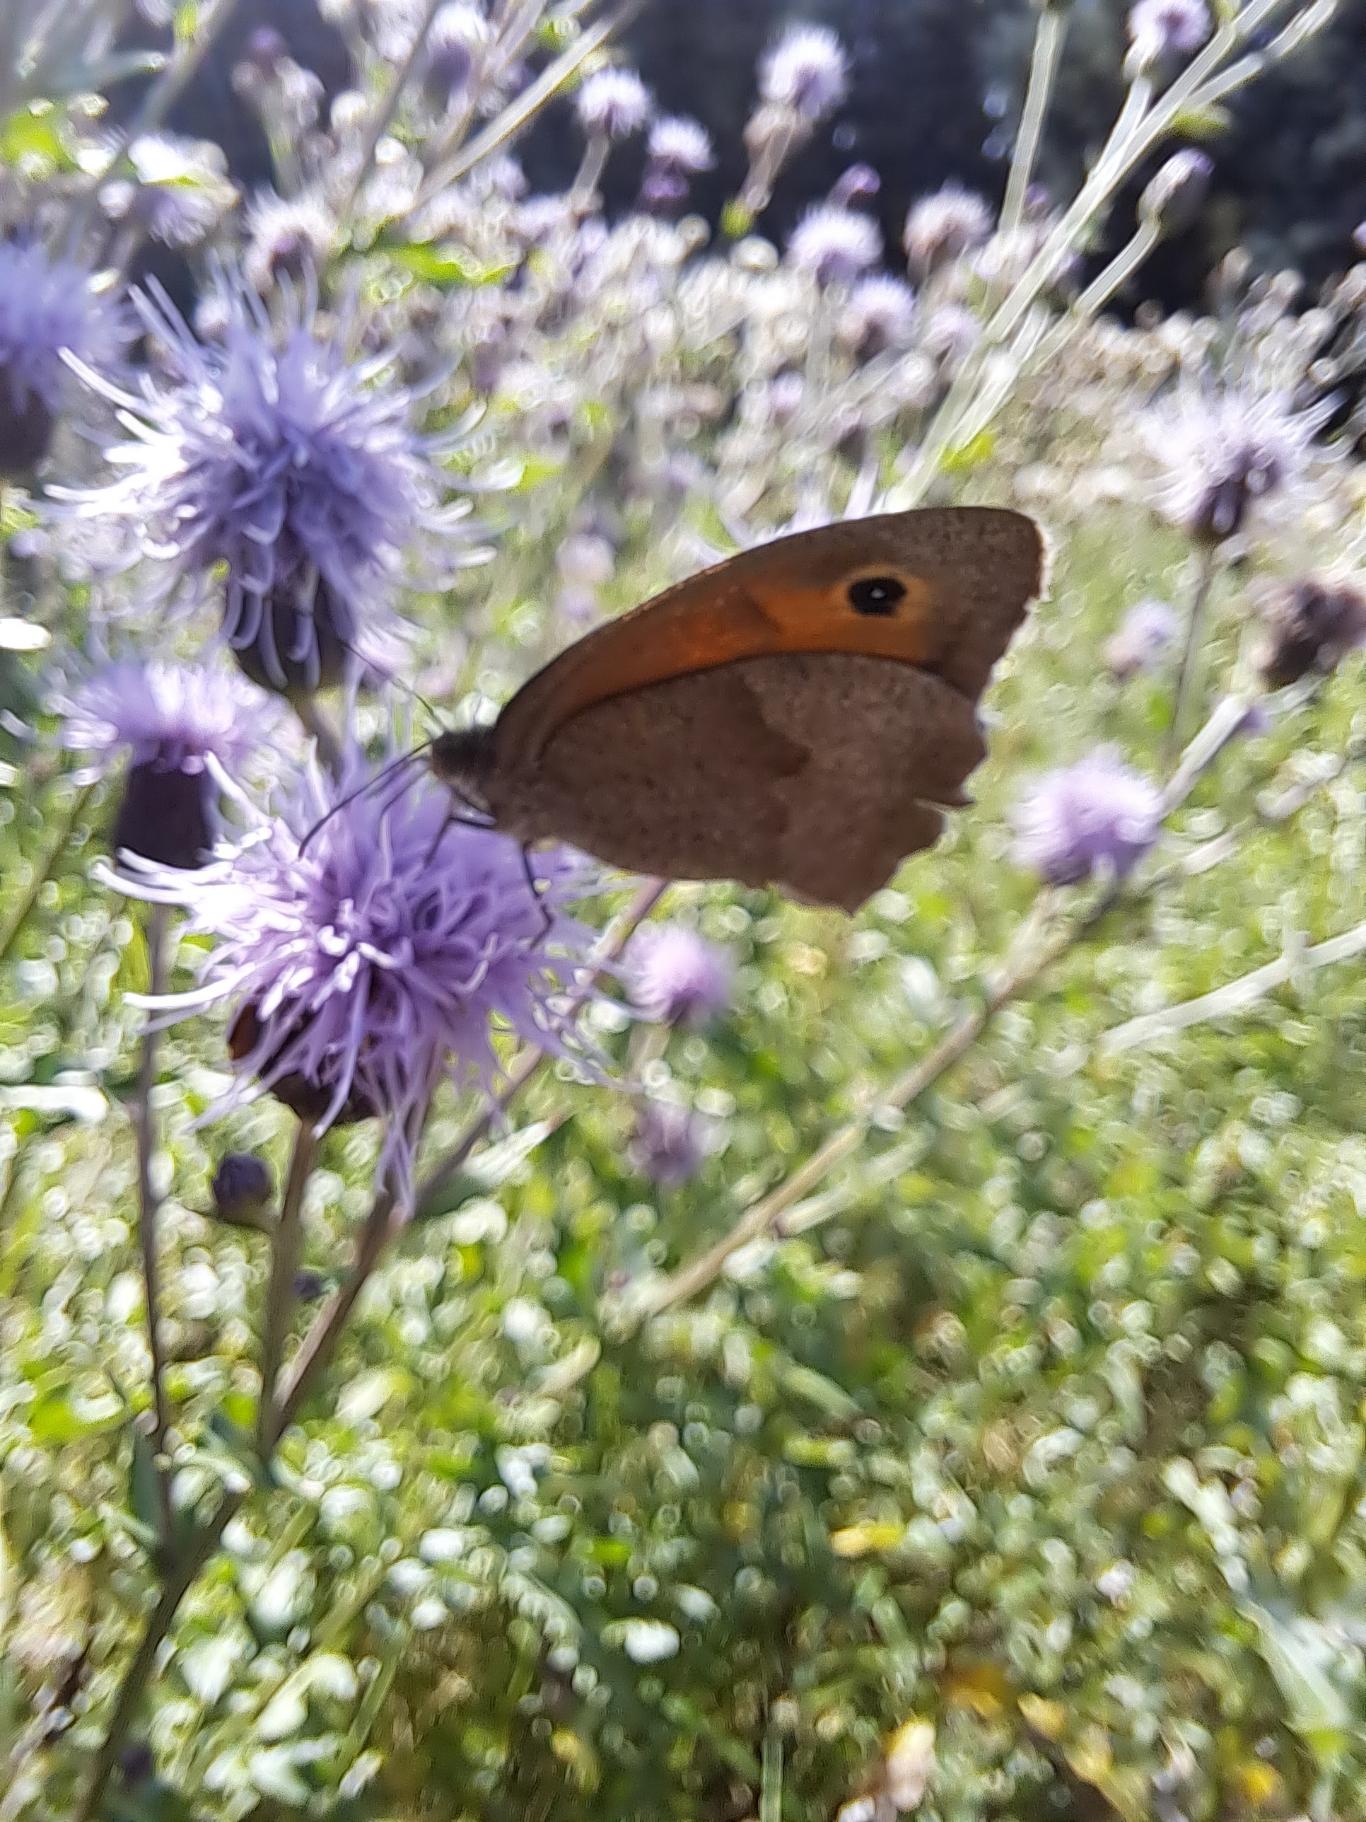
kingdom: Animalia
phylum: Arthropoda
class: Insecta
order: Lepidoptera
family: Nymphalidae
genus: Maniola
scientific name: Maniola jurtina
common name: Græsrandøje
